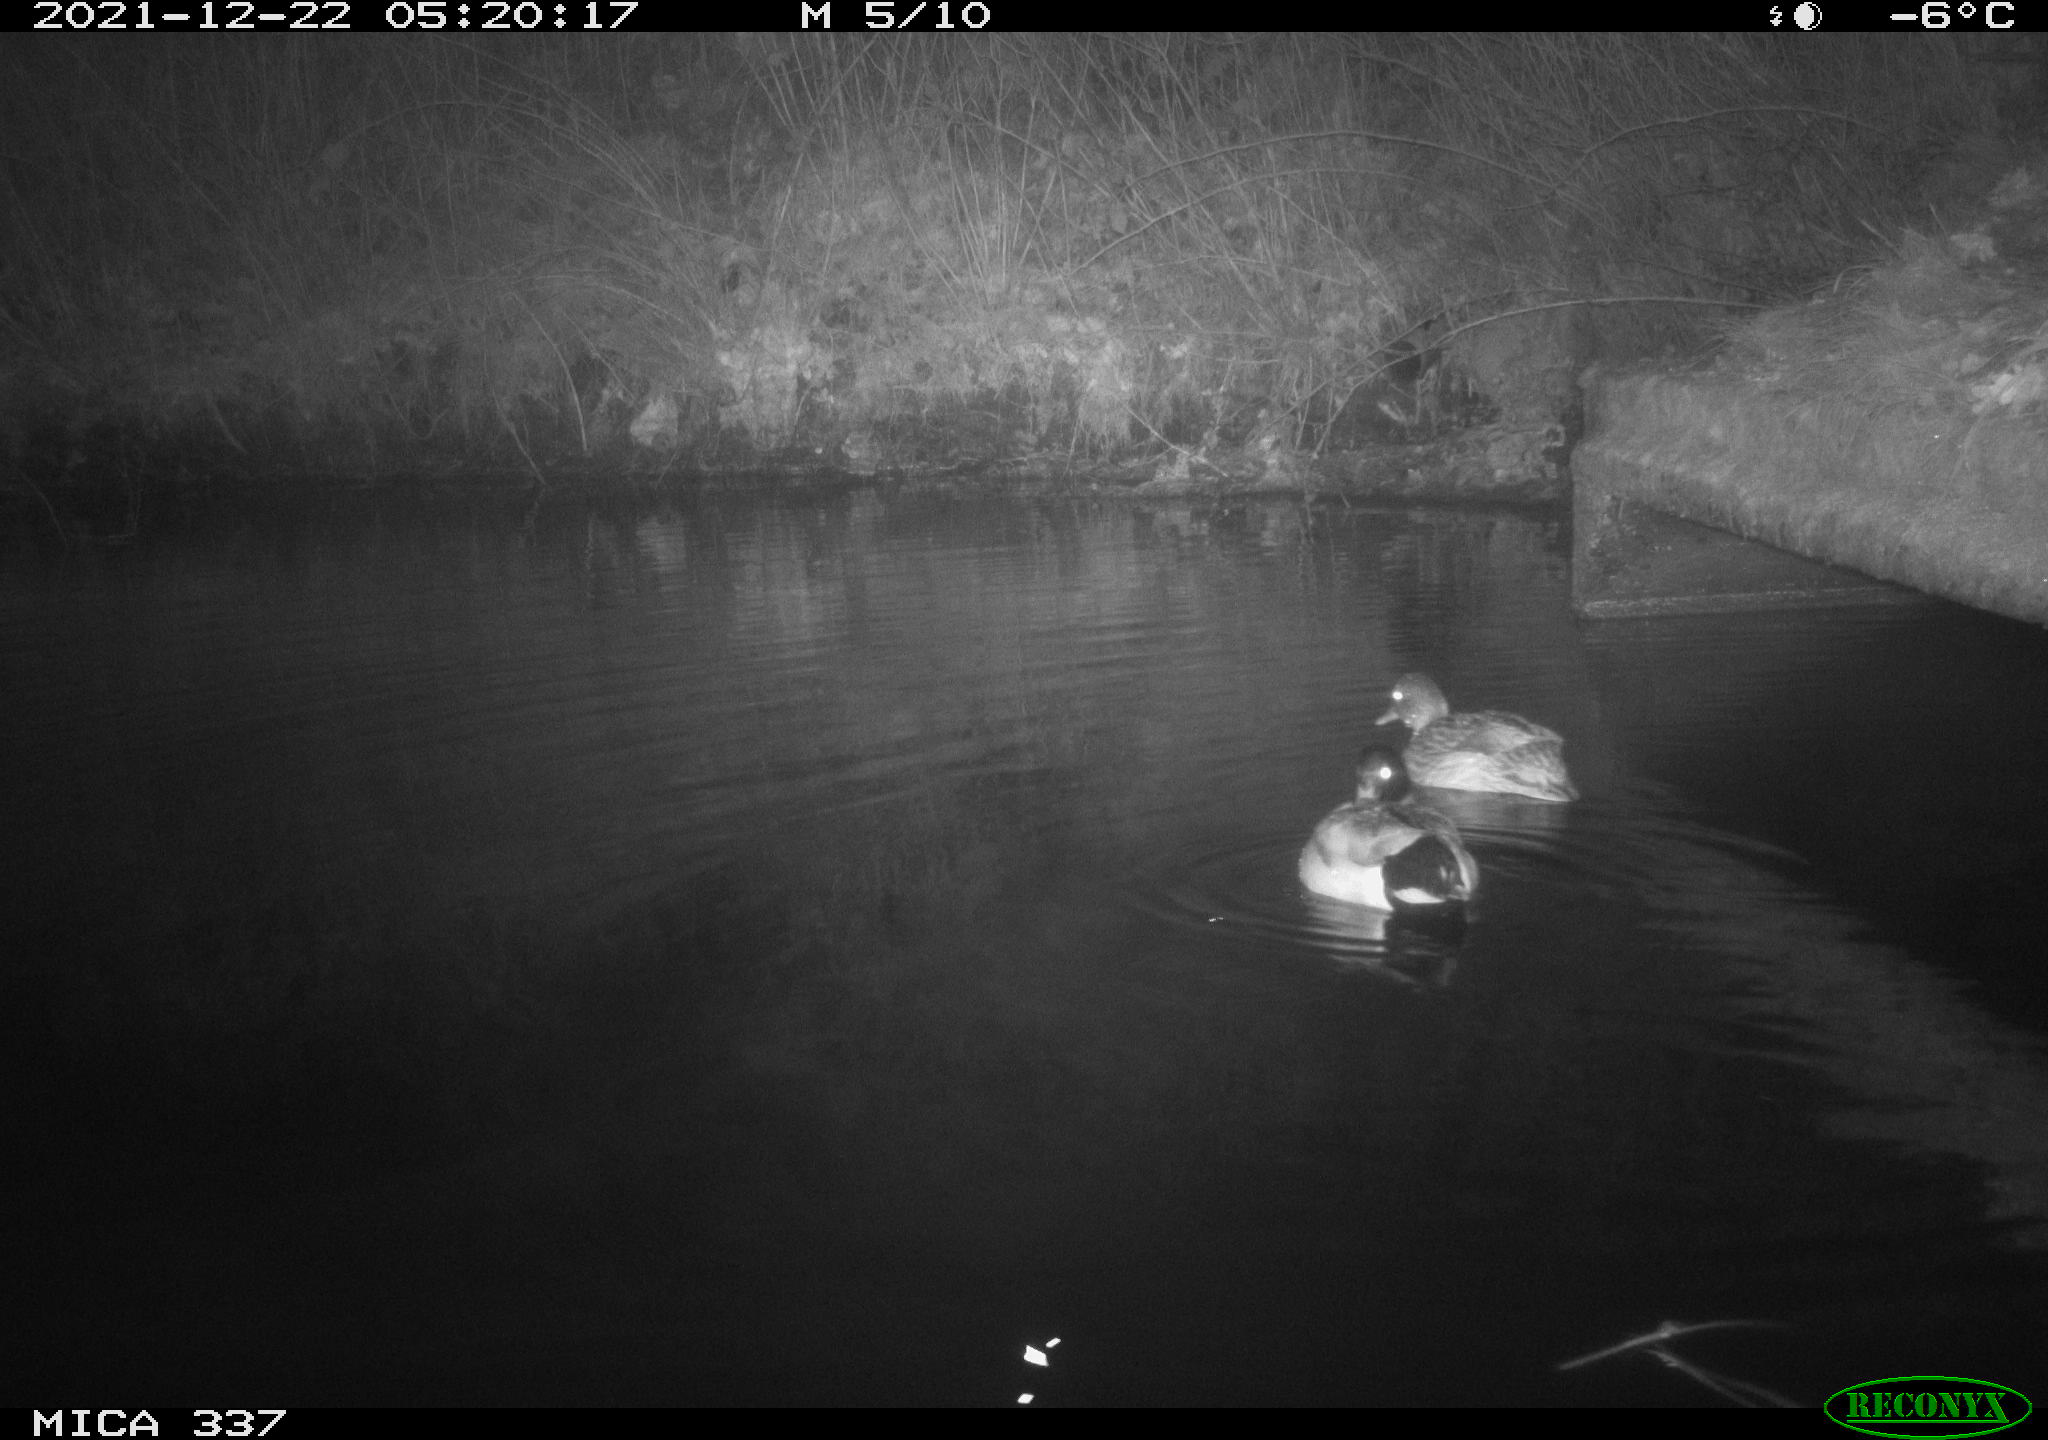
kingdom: Animalia
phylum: Chordata
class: Aves
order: Anseriformes
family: Anatidae
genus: Anas
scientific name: Anas platyrhynchos
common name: Mallard
